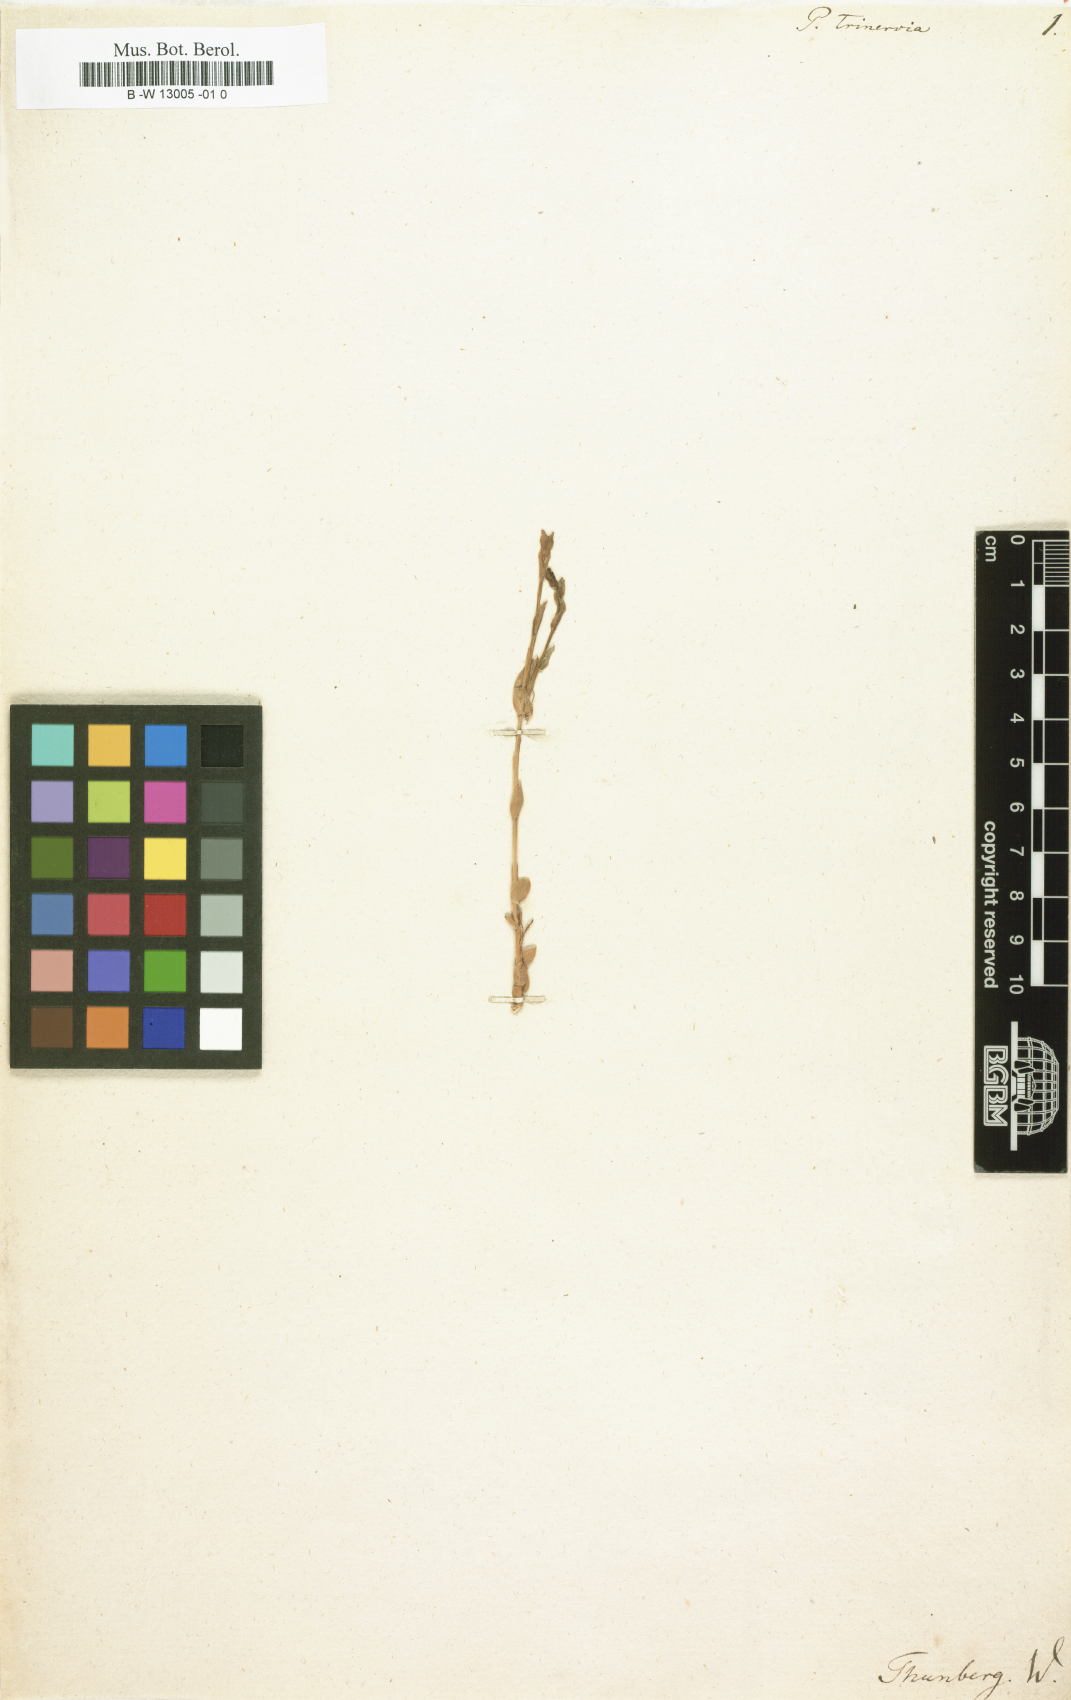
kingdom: Plantae
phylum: Tracheophyta
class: Magnoliopsida
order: Fabales
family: Polygalaceae
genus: Muraltia
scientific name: Muraltia trinervia
